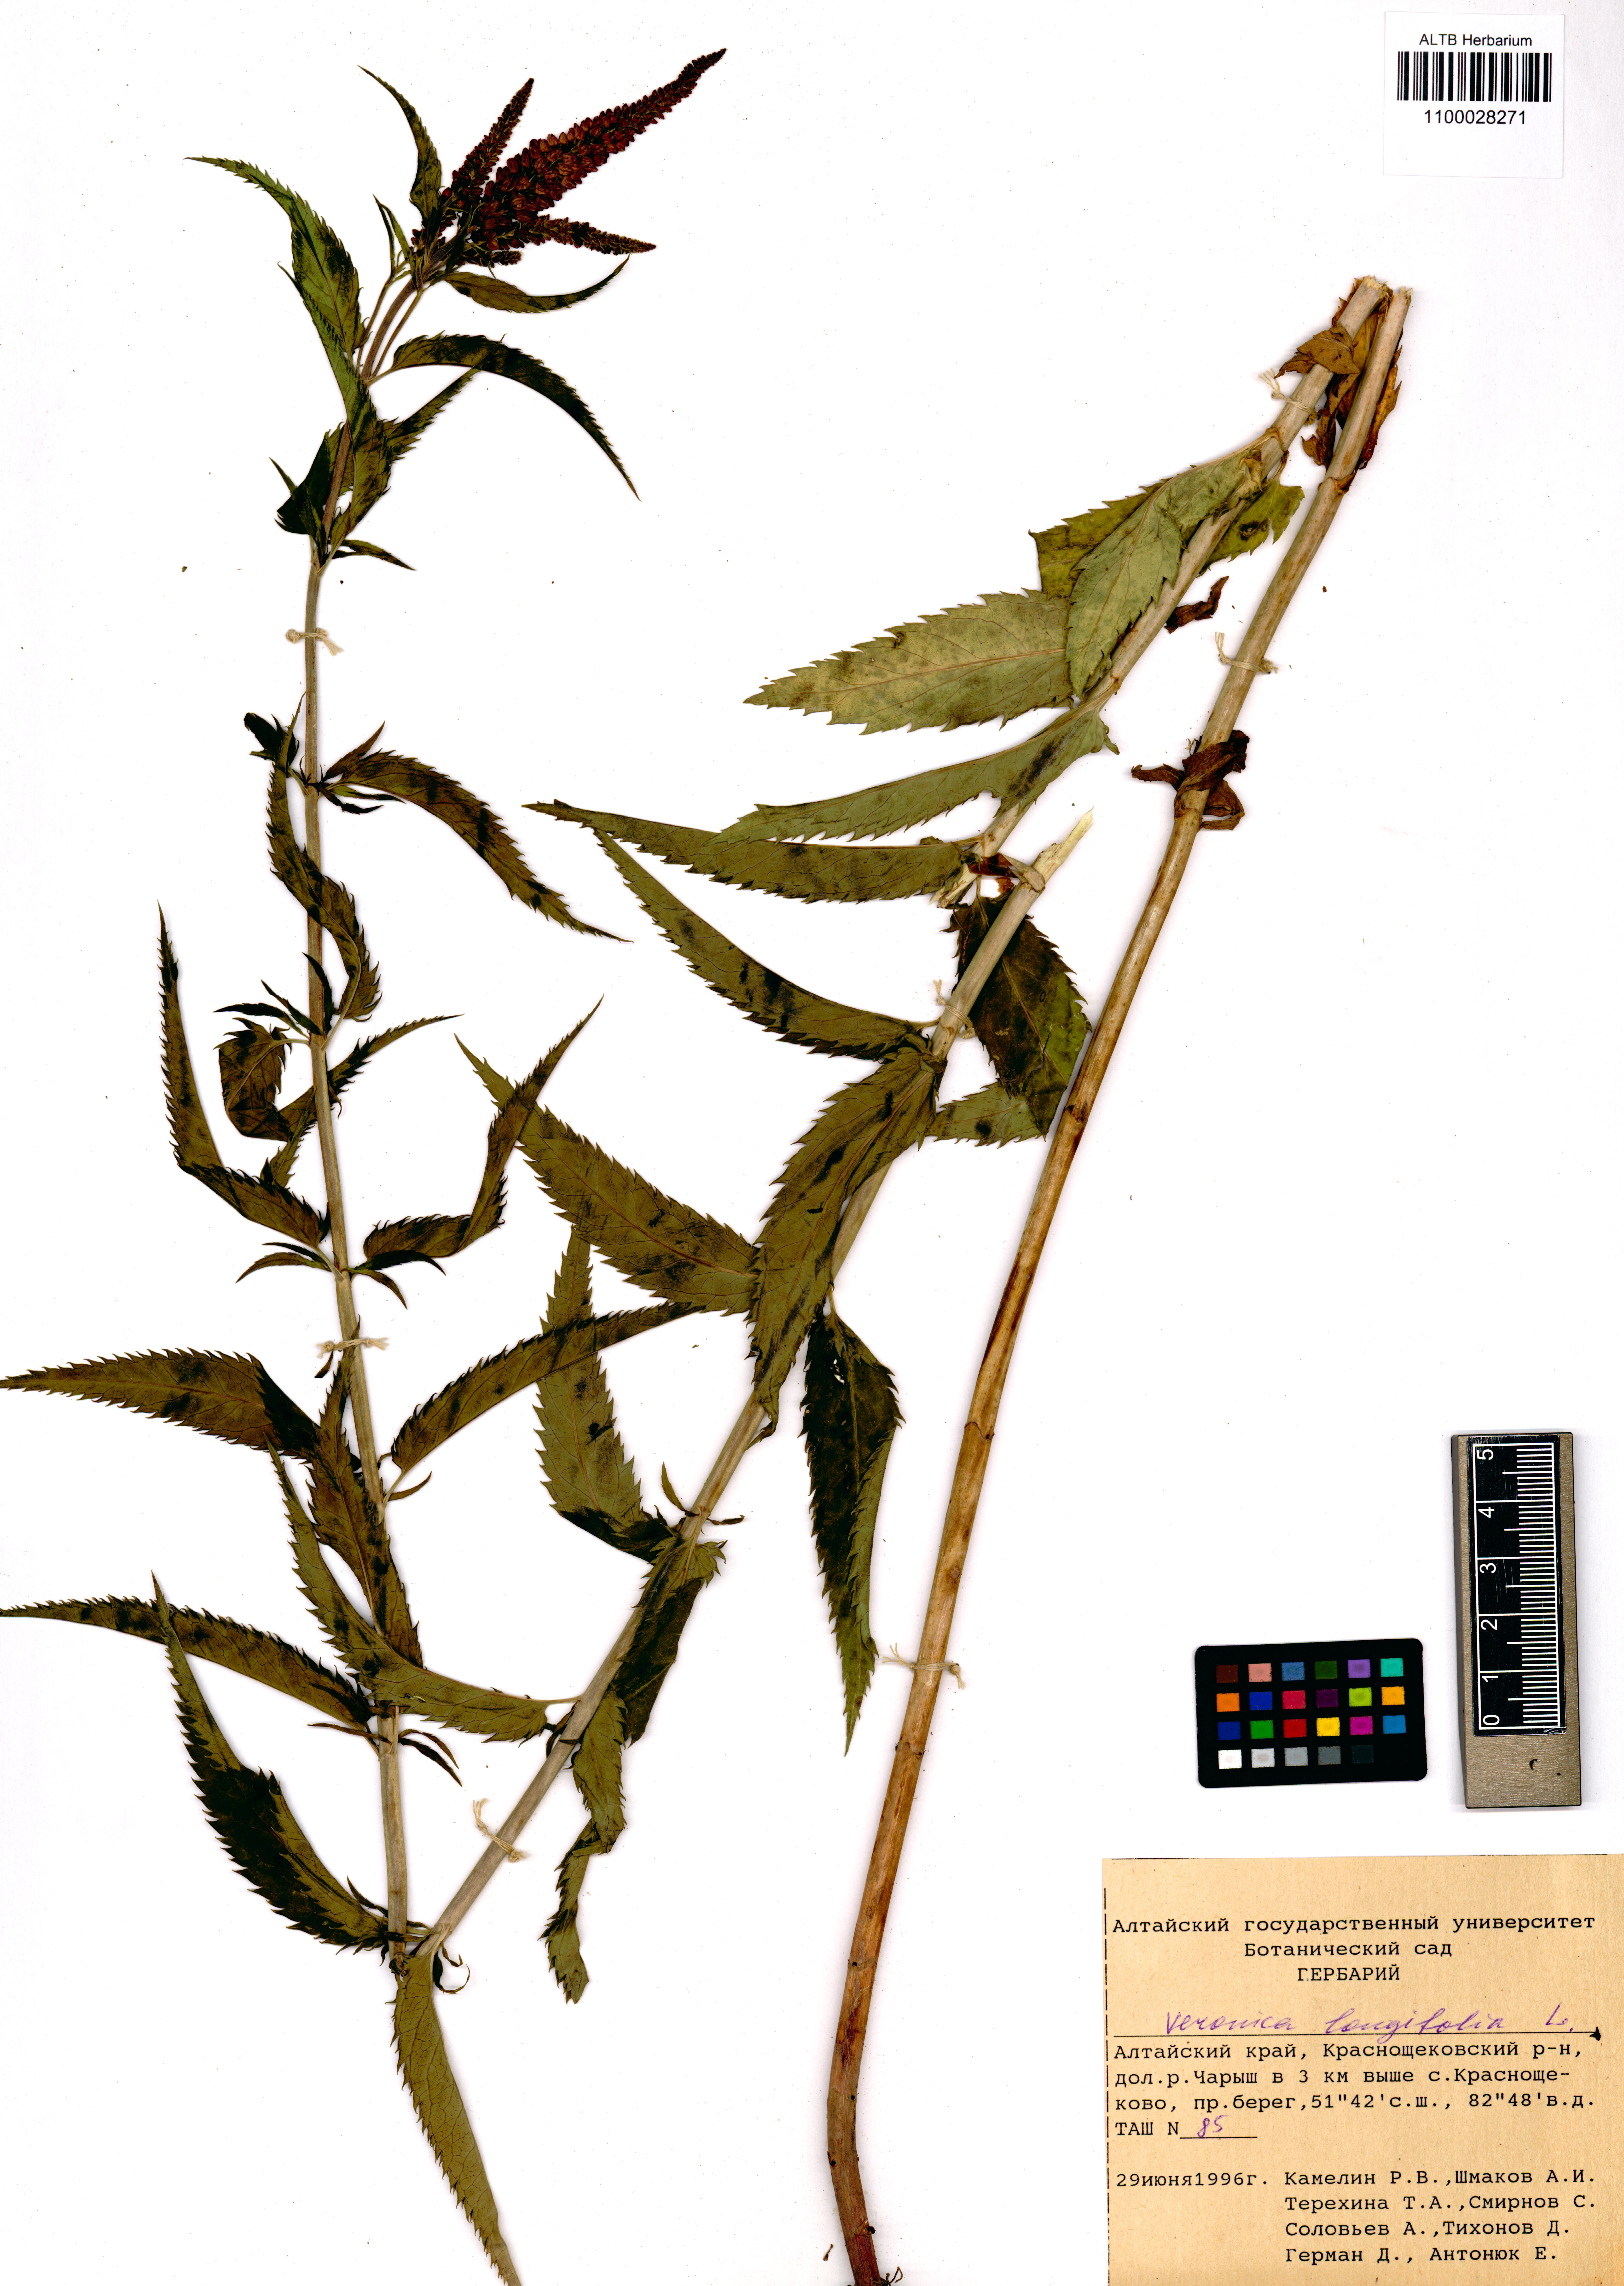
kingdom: Plantae
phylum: Tracheophyta
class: Magnoliopsida
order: Lamiales
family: Plantaginaceae
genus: Veronica
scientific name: Veronica longifolia
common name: Garden speedwell
